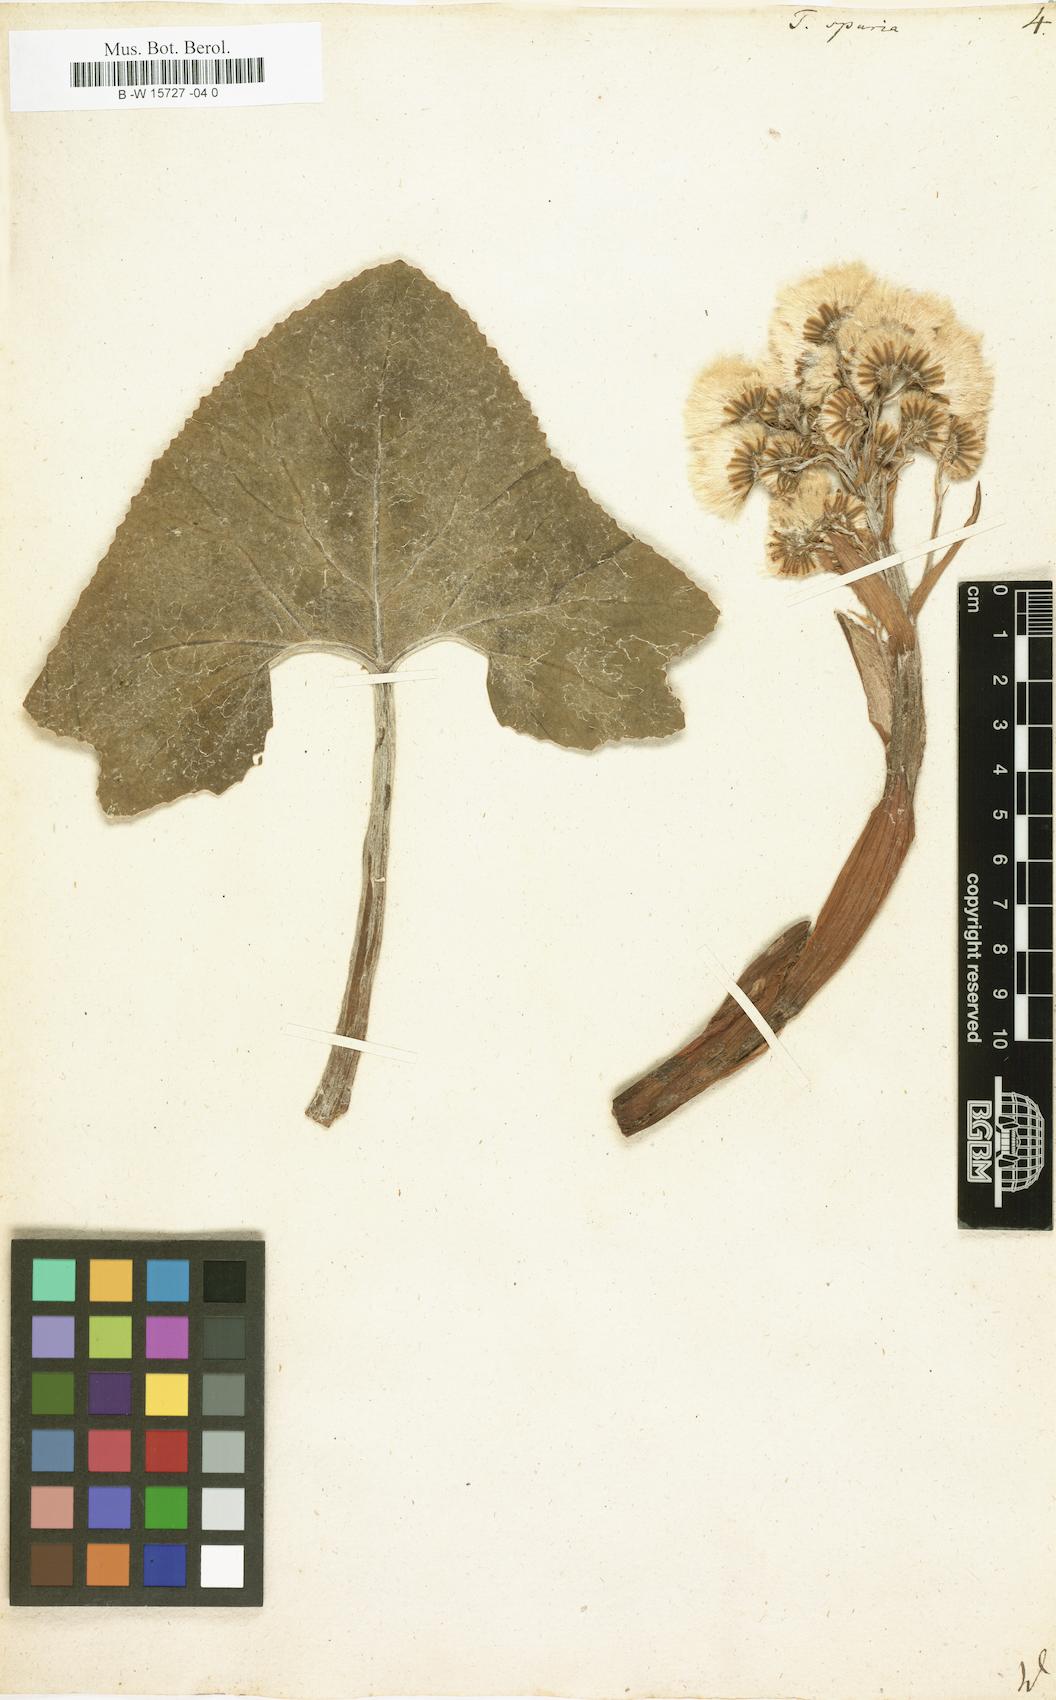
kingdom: Plantae
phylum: Tracheophyta
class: Magnoliopsida
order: Asterales
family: Asteraceae
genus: Petasites
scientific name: Petasites
